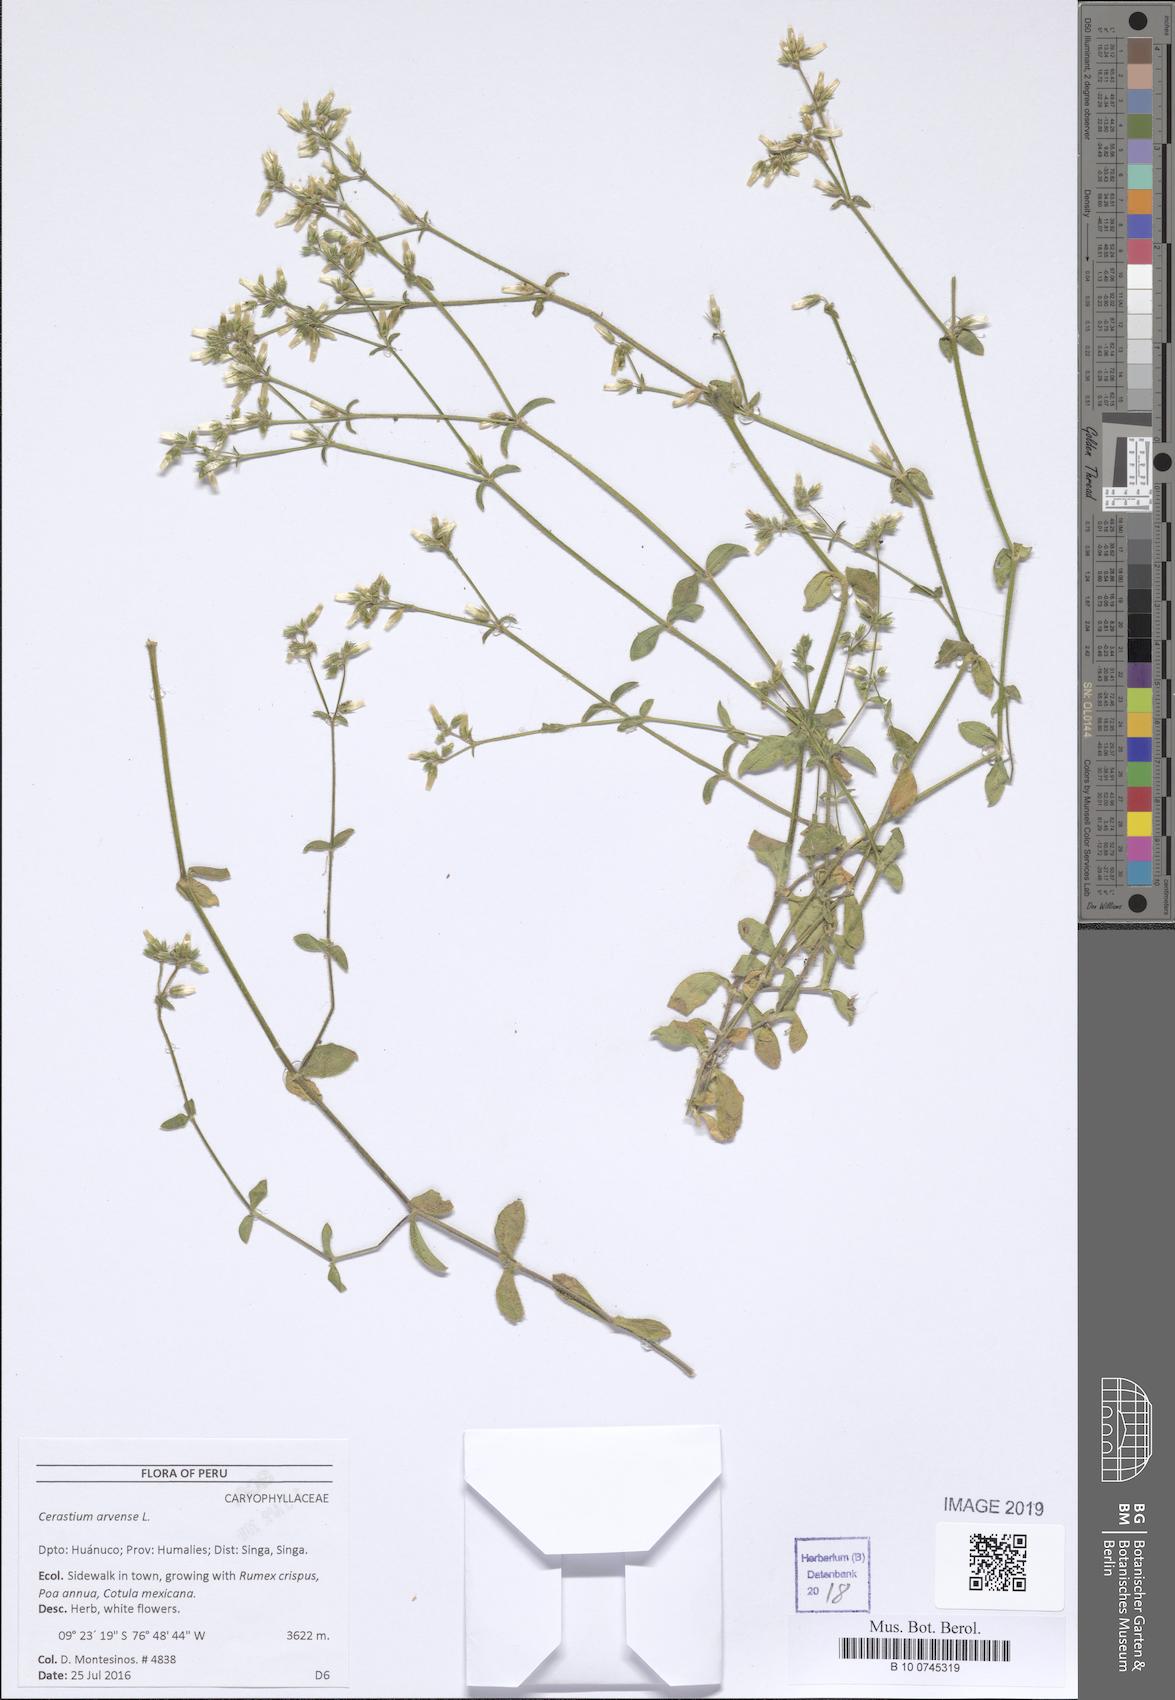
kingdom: Plantae
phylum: Tracheophyta
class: Magnoliopsida
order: Caryophyllales
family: Caryophyllaceae
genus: Cerastium
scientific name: Cerastium arvense
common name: Field mouse-ear
